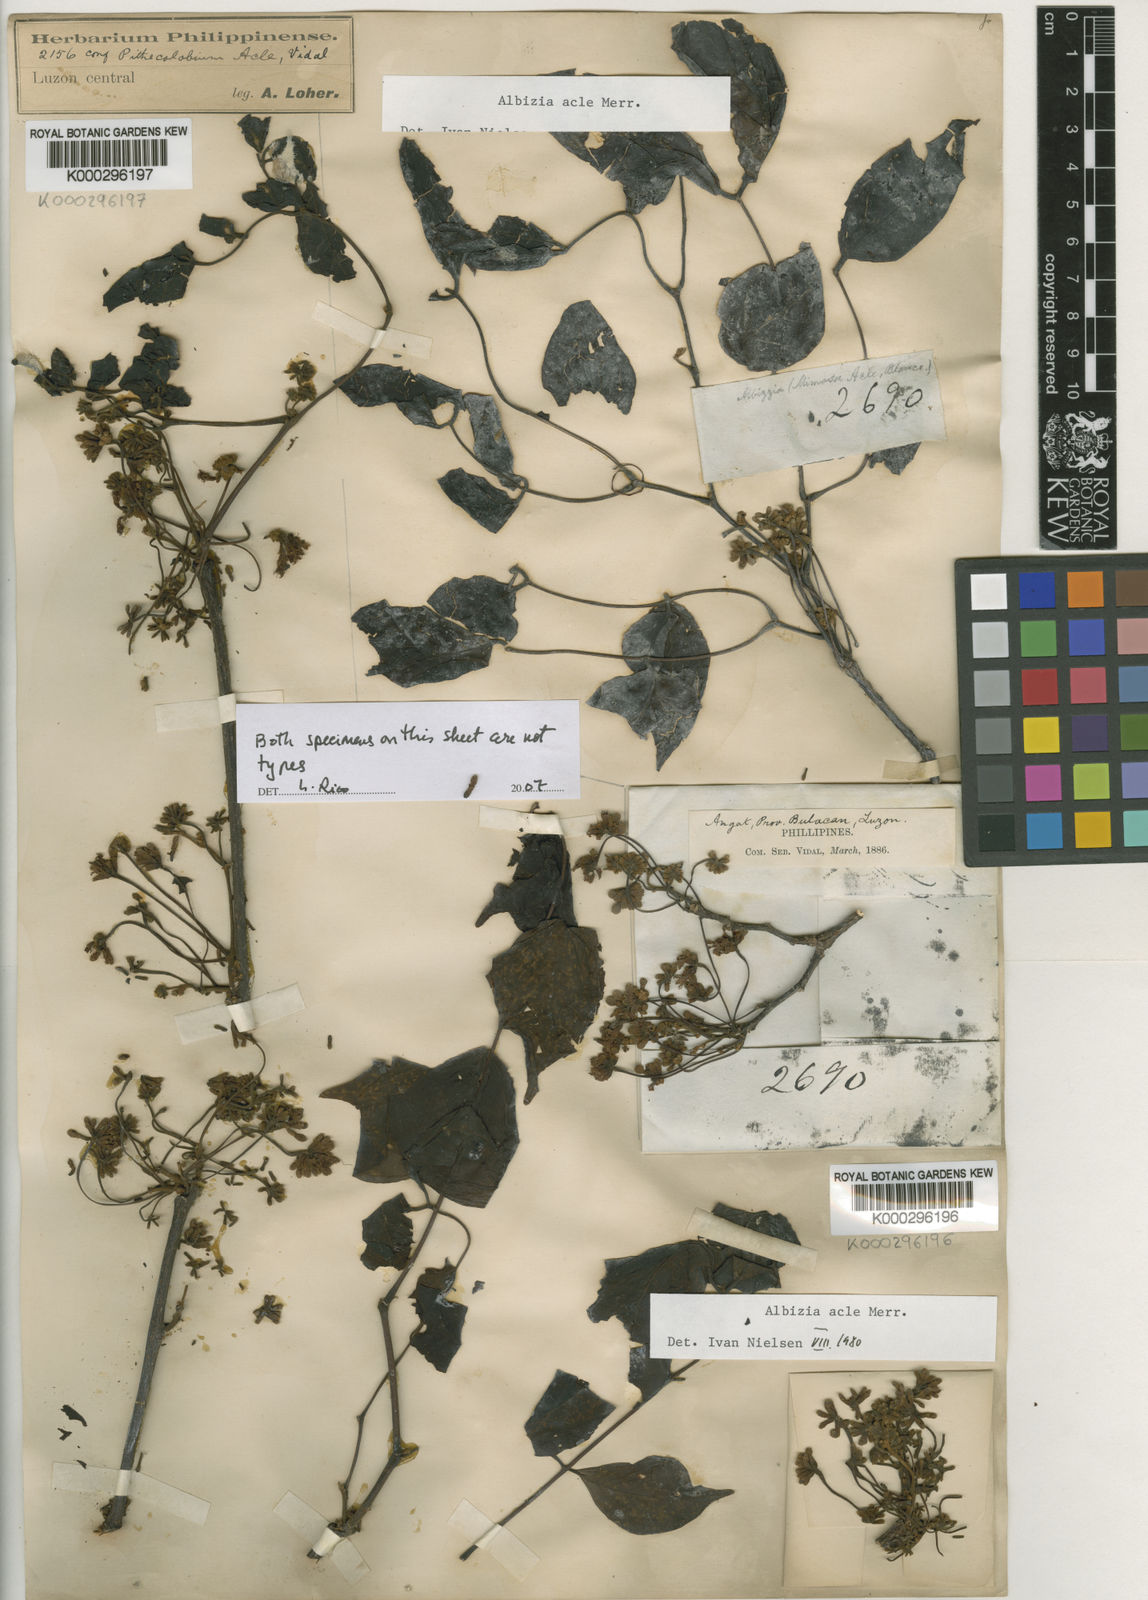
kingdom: Plantae
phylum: Tracheophyta
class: Magnoliopsida
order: Fabales
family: Fabaceae
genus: Albizia
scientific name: Albizia acle
